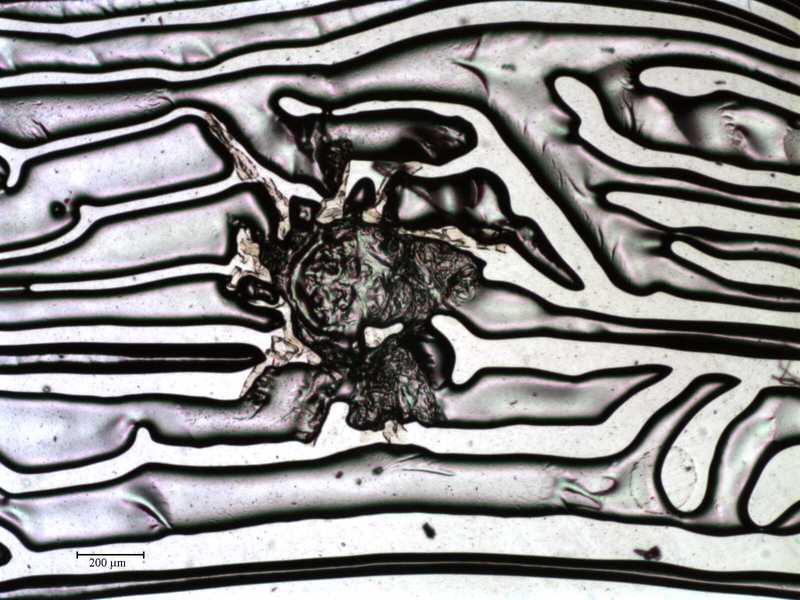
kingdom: Animalia
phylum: Arthropoda
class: Arachnida
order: Mesostigmata
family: Rhinonyssidae
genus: Ptilonyssus
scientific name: Ptilonyssus
